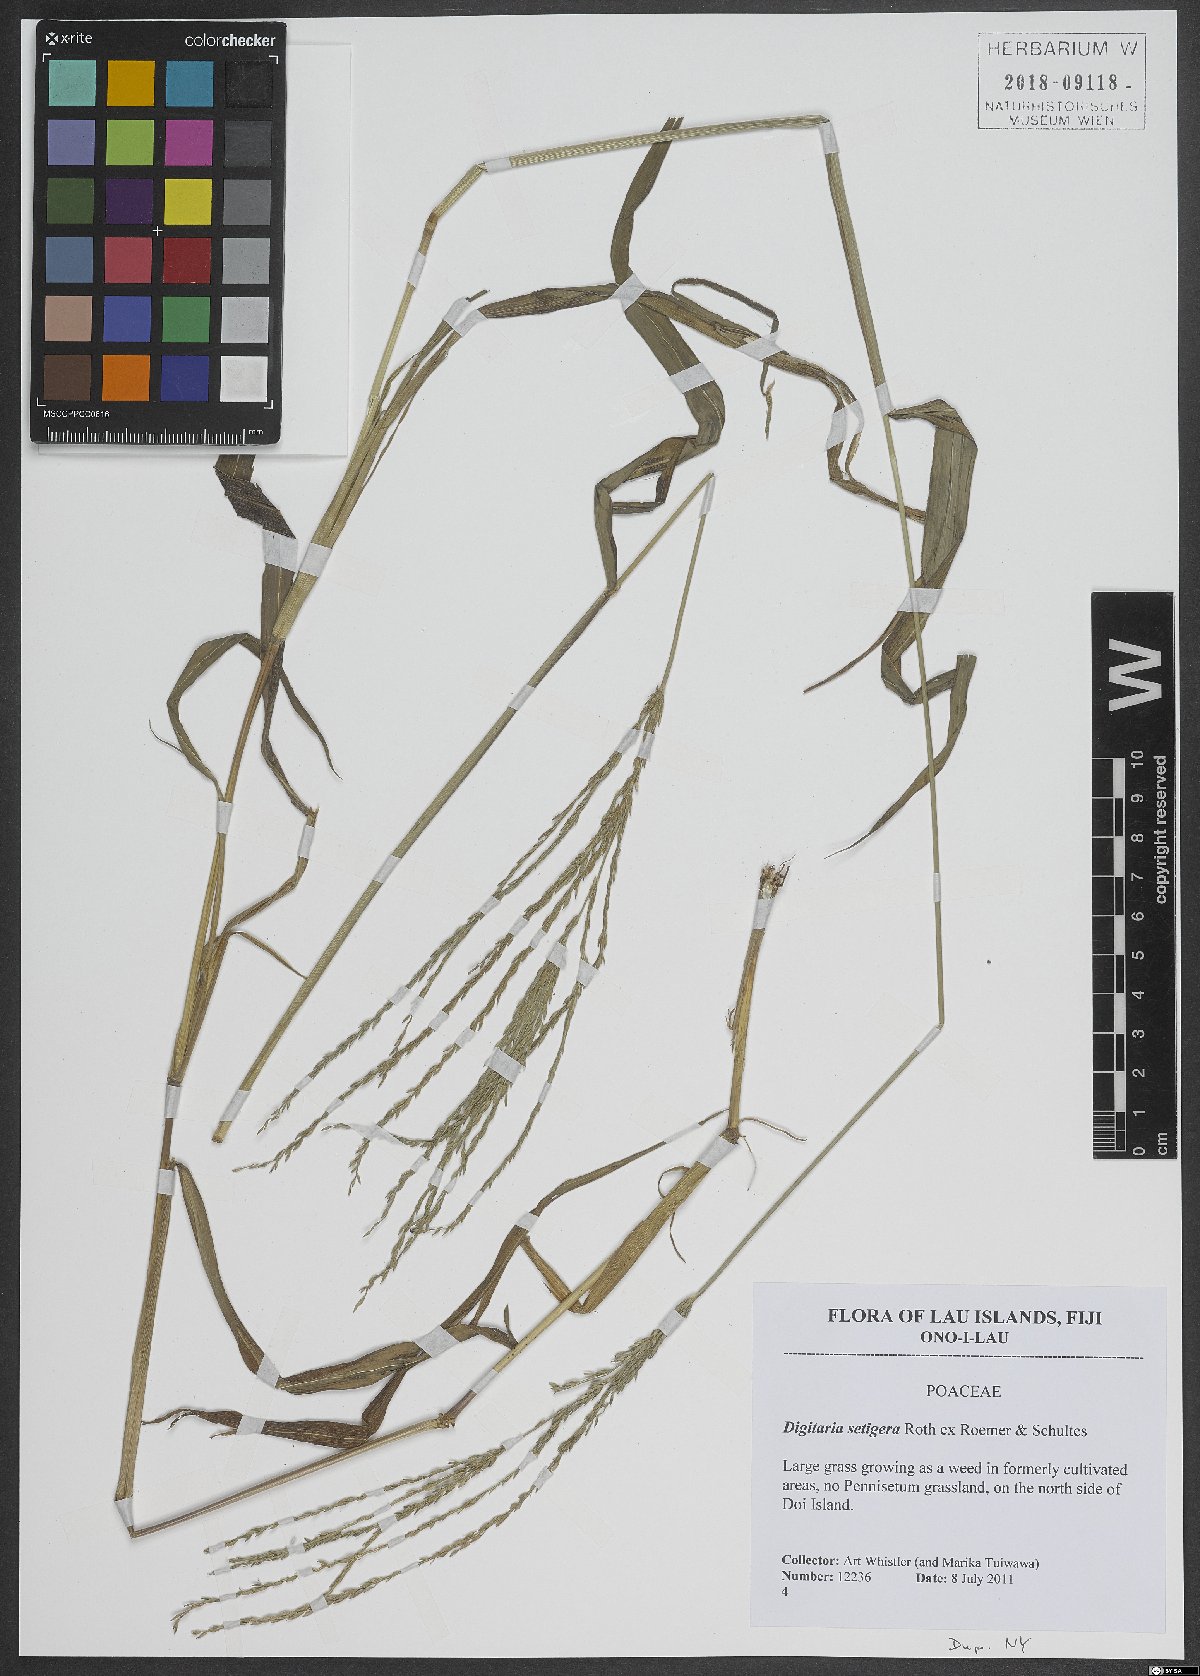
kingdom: Plantae
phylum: Tracheophyta
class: Liliopsida
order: Poales
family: Poaceae
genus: Digitaria
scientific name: Digitaria setigera
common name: East indian crabgrass
